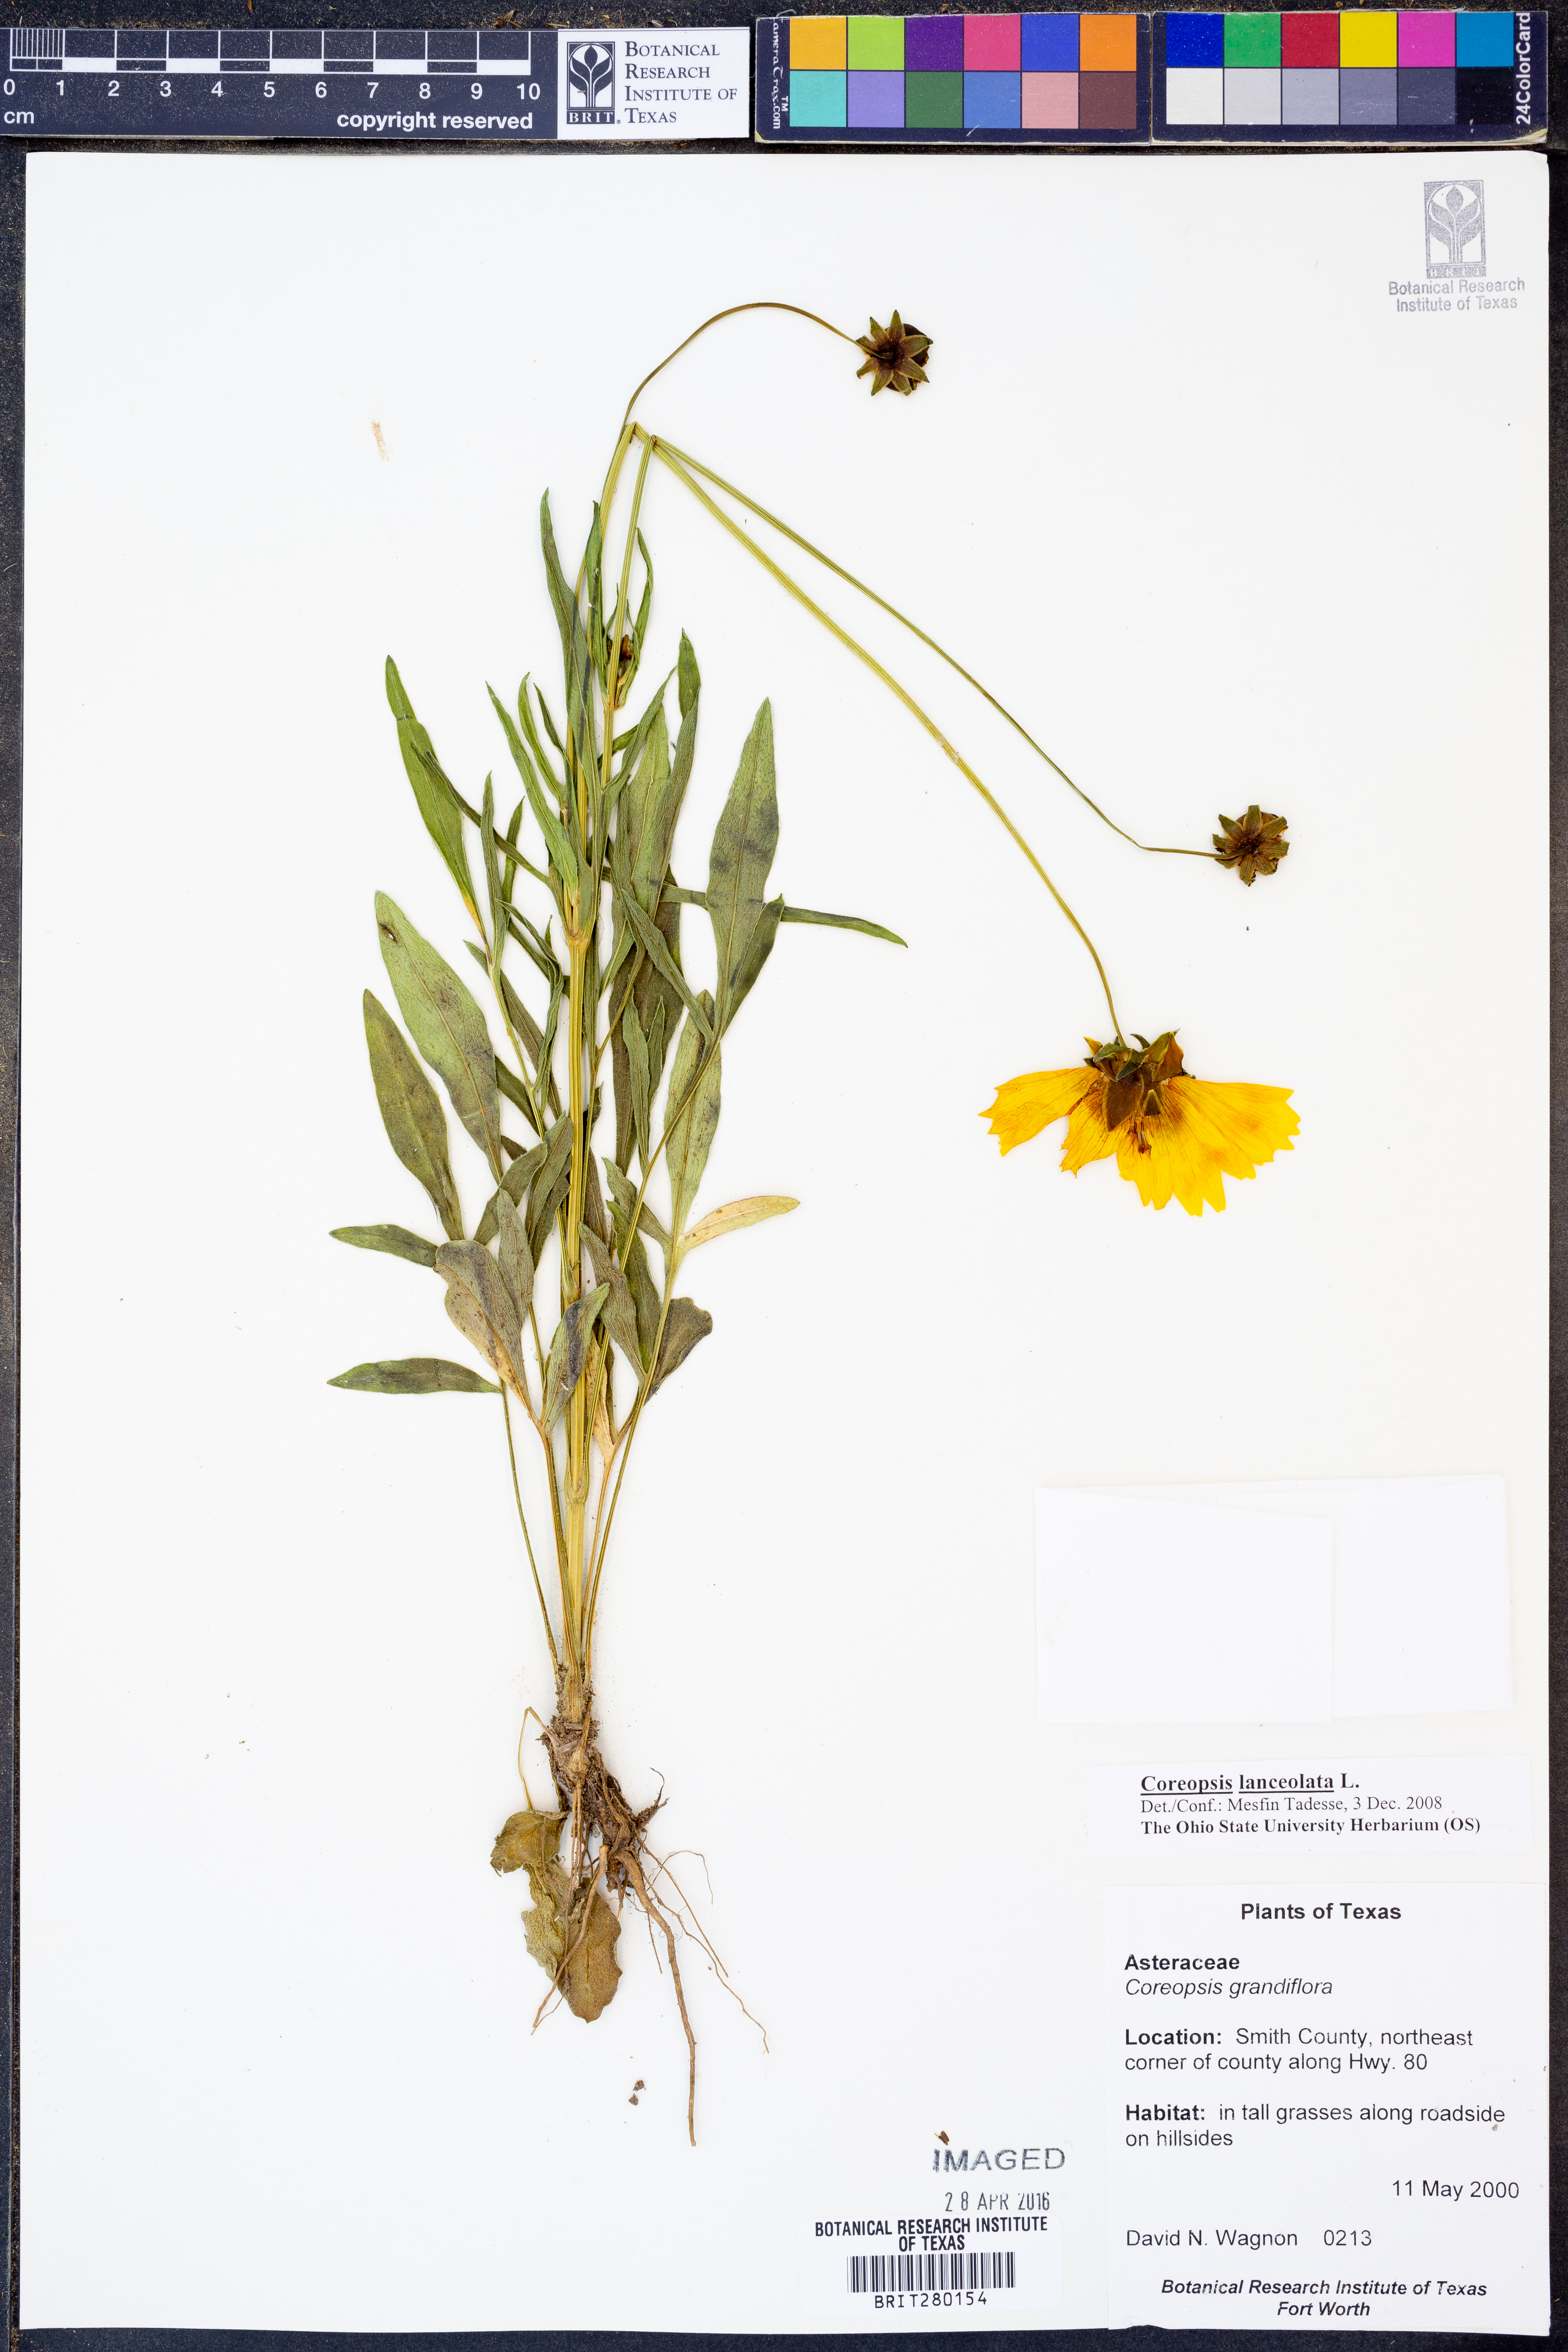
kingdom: Plantae
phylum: Tracheophyta
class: Magnoliopsida
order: Asterales
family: Asteraceae
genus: Coreopsis
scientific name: Coreopsis lanceolata
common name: Garden coreopsis
